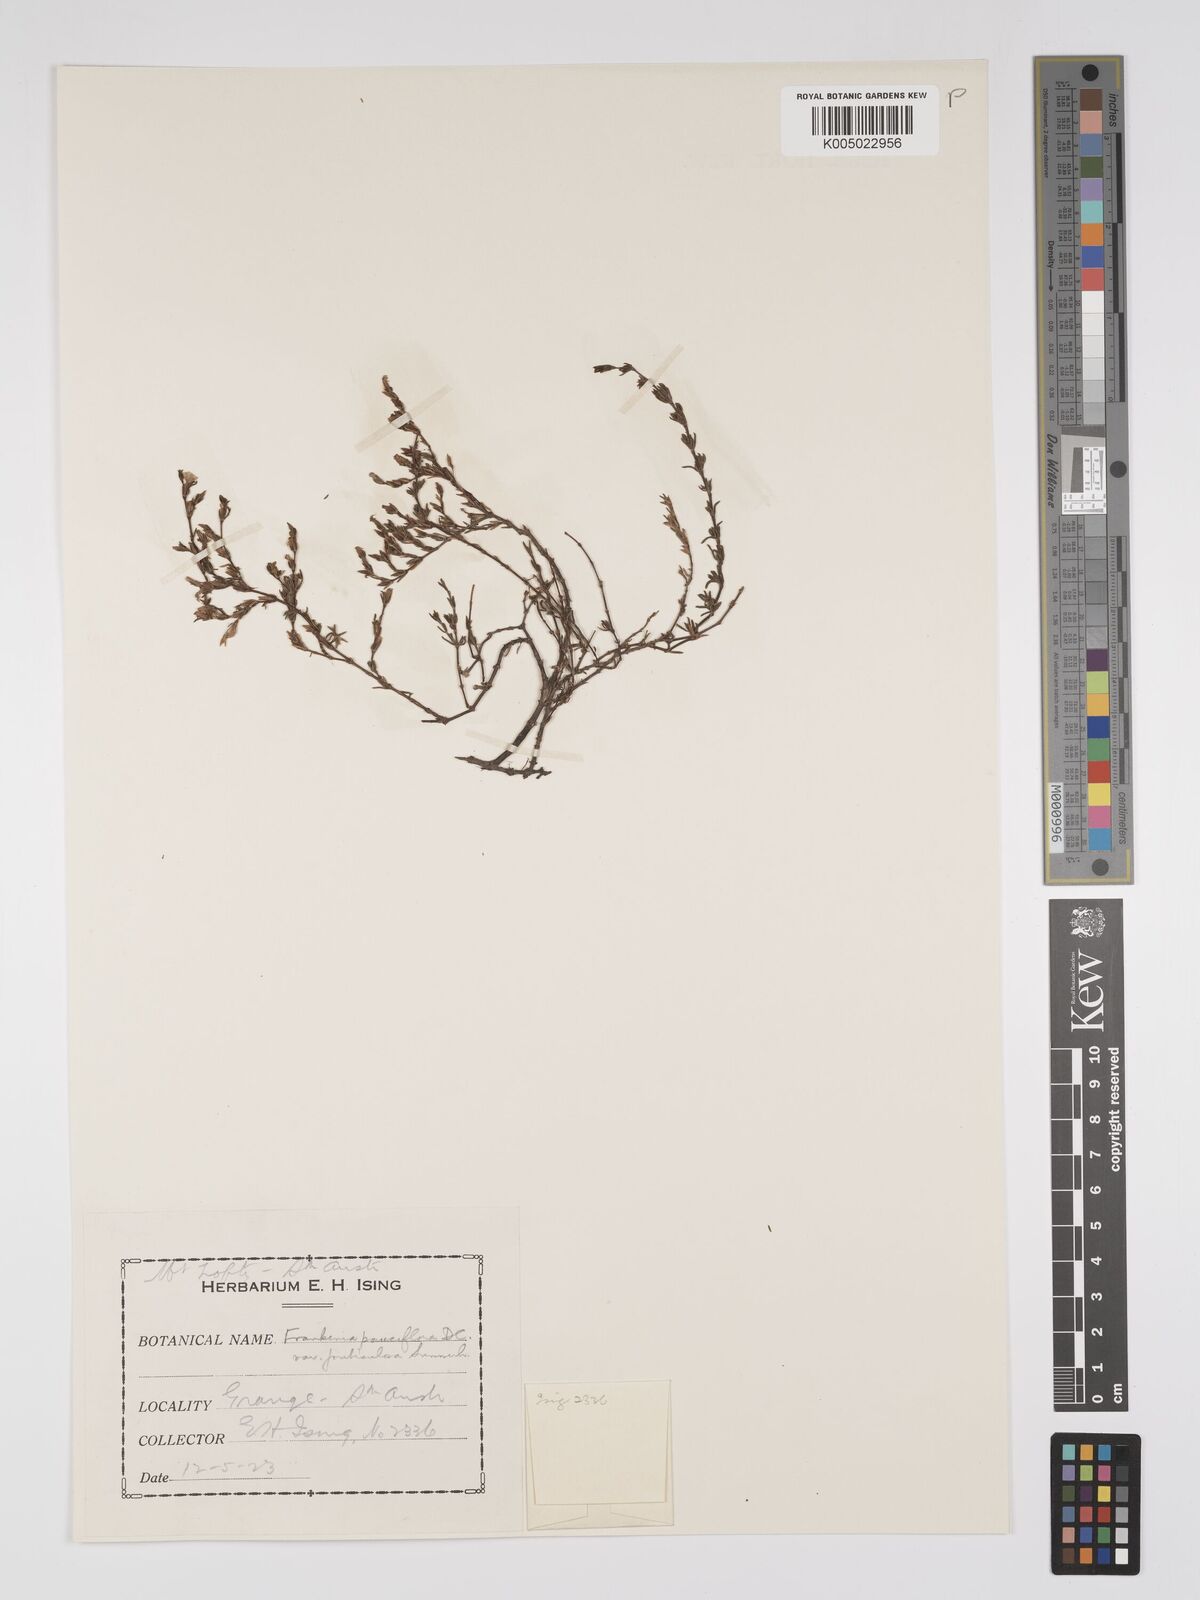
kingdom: Plantae
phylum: Tracheophyta
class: Magnoliopsida
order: Caryophyllales
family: Frankeniaceae
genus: Frankenia
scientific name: Frankenia pauciflora
